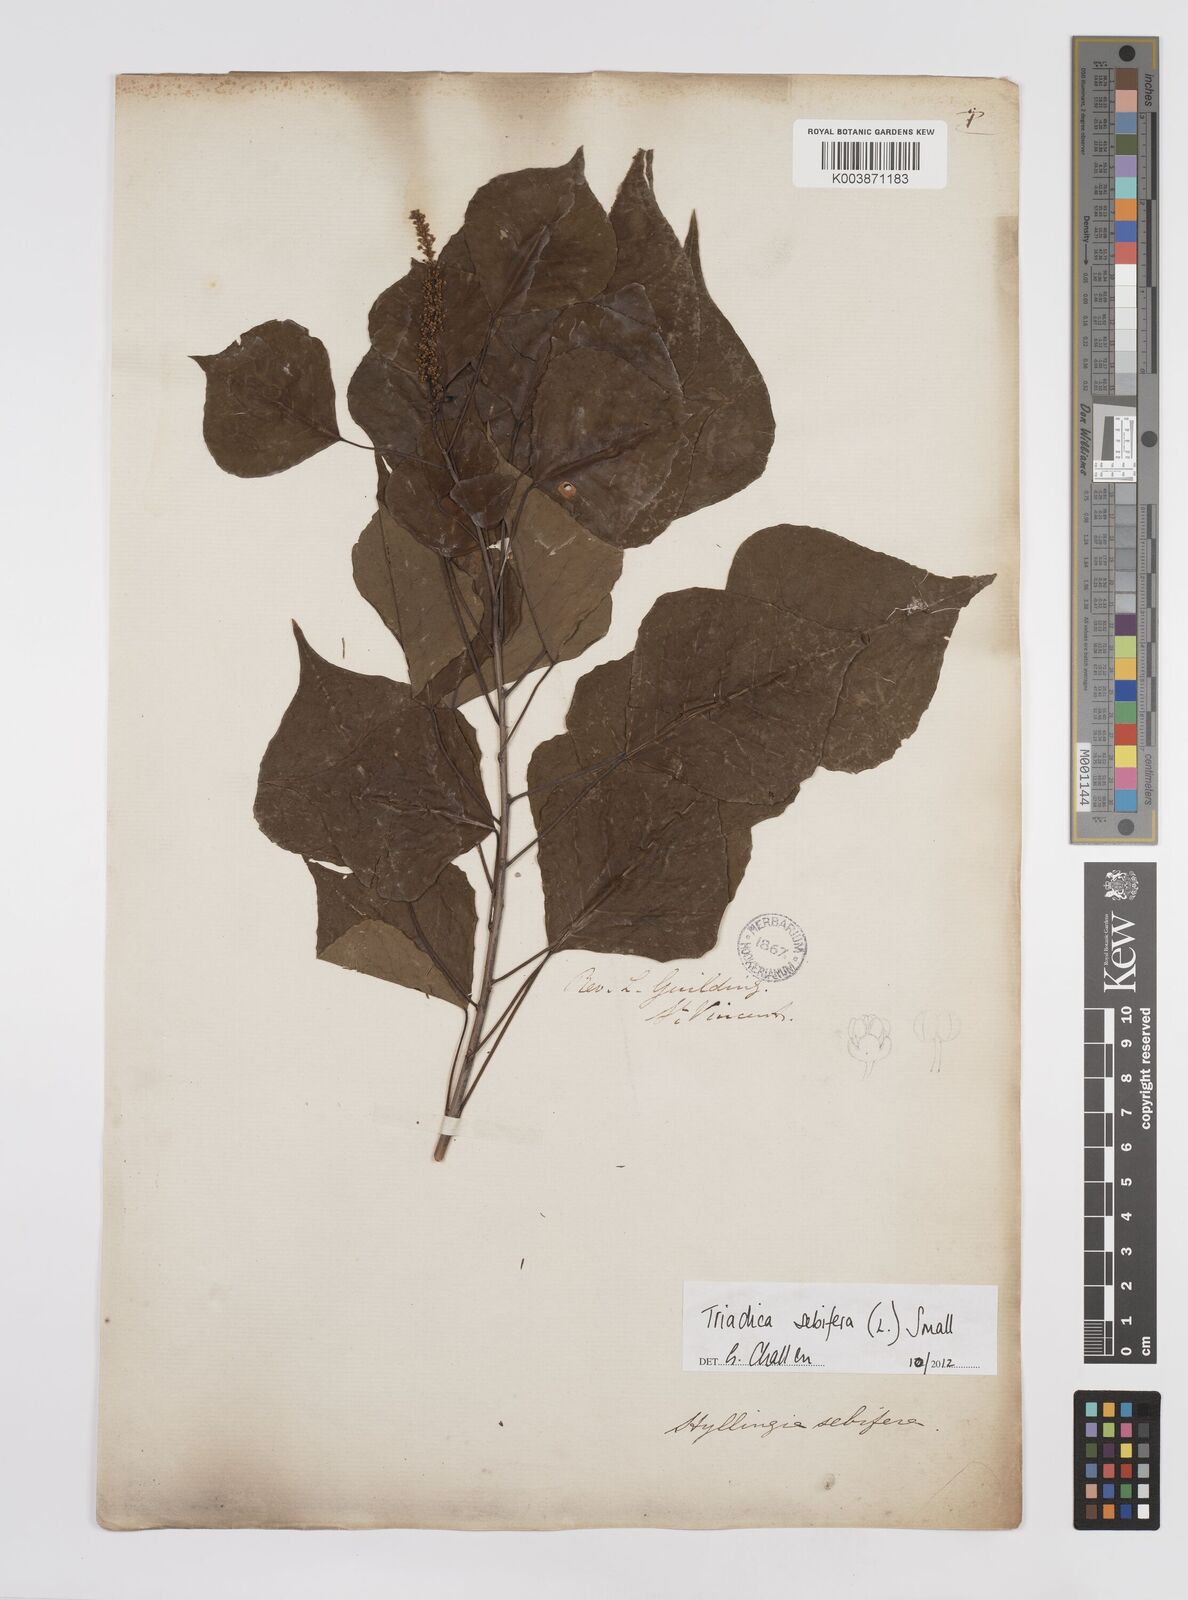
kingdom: Plantae
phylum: Tracheophyta
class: Magnoliopsida
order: Malpighiales
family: Euphorbiaceae
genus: Triadica
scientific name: Triadica sebifera
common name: Chinese tallow
